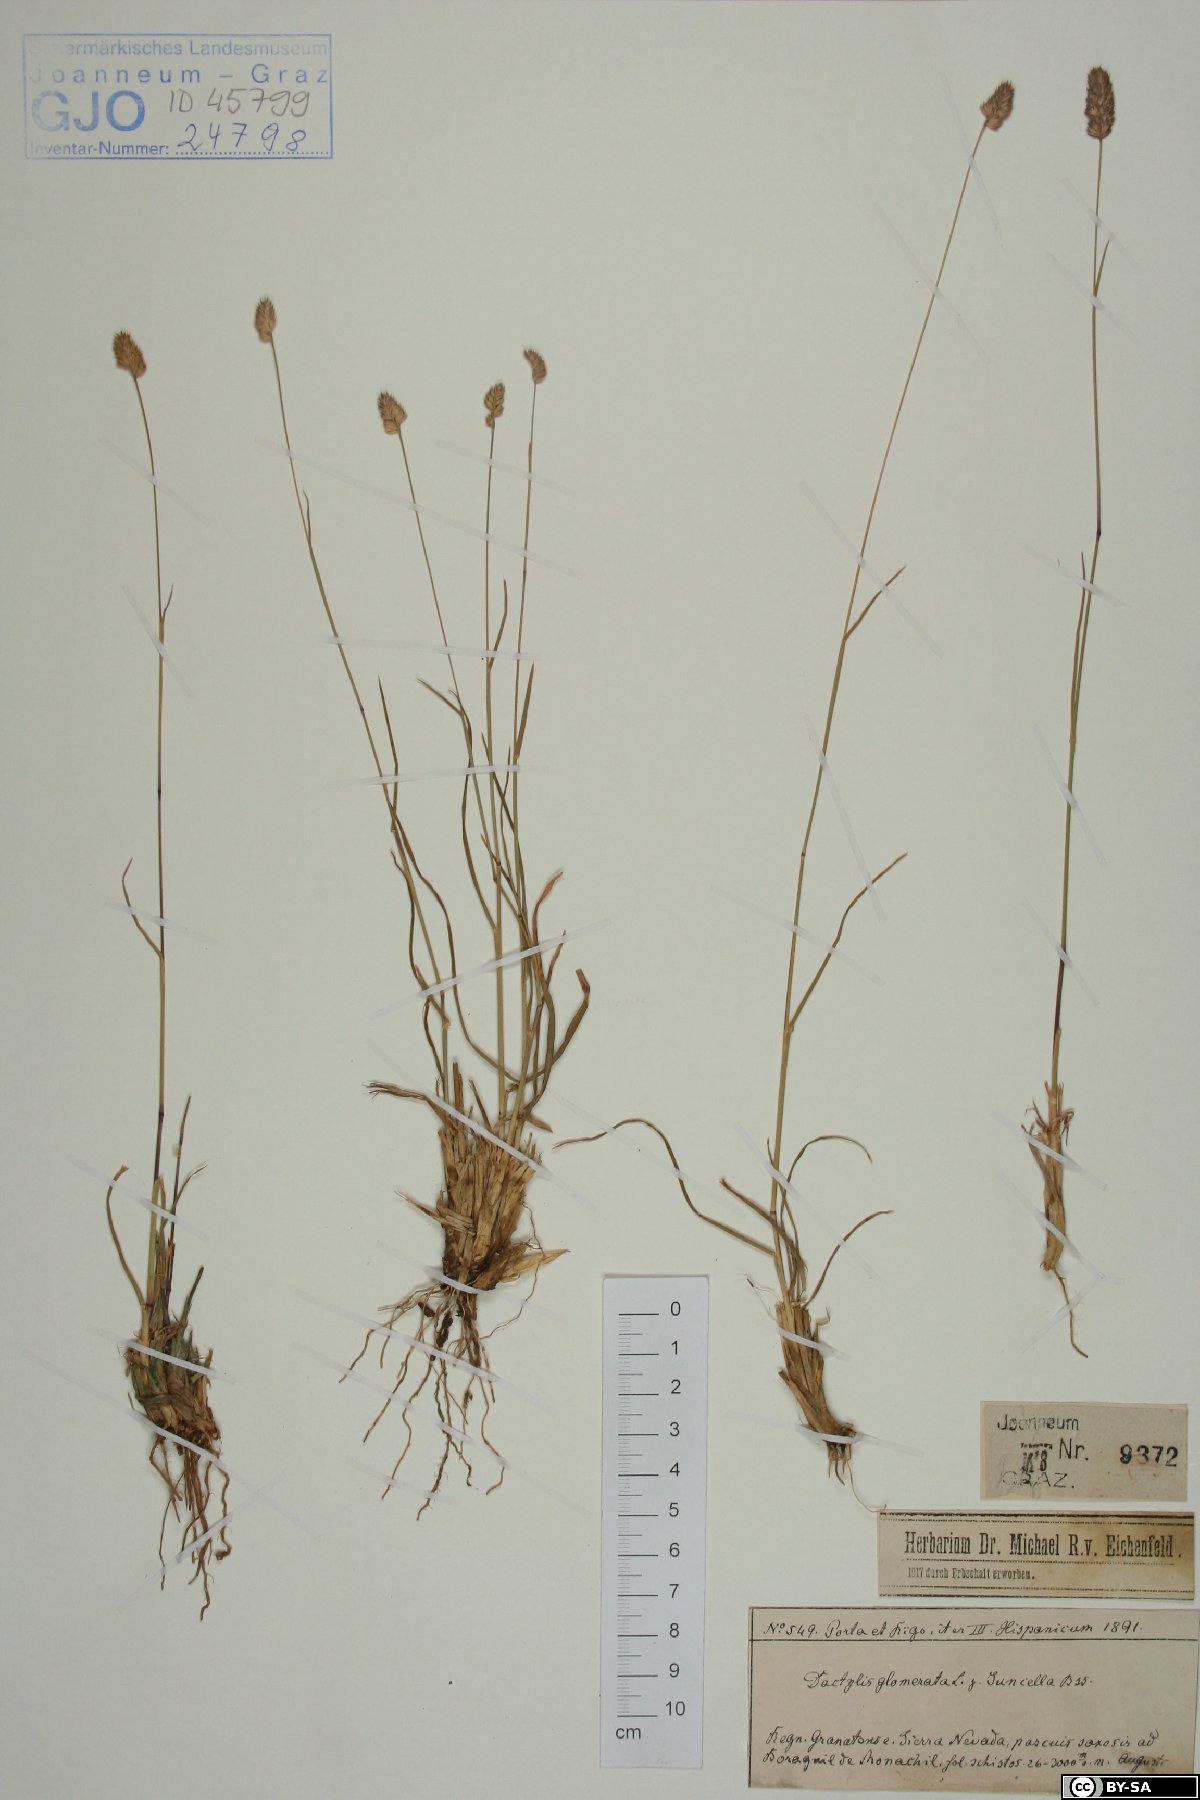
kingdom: Plantae
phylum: Tracheophyta
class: Liliopsida
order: Poales
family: Poaceae
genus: Dactylis
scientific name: Dactylis glomerata
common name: Orchardgrass
